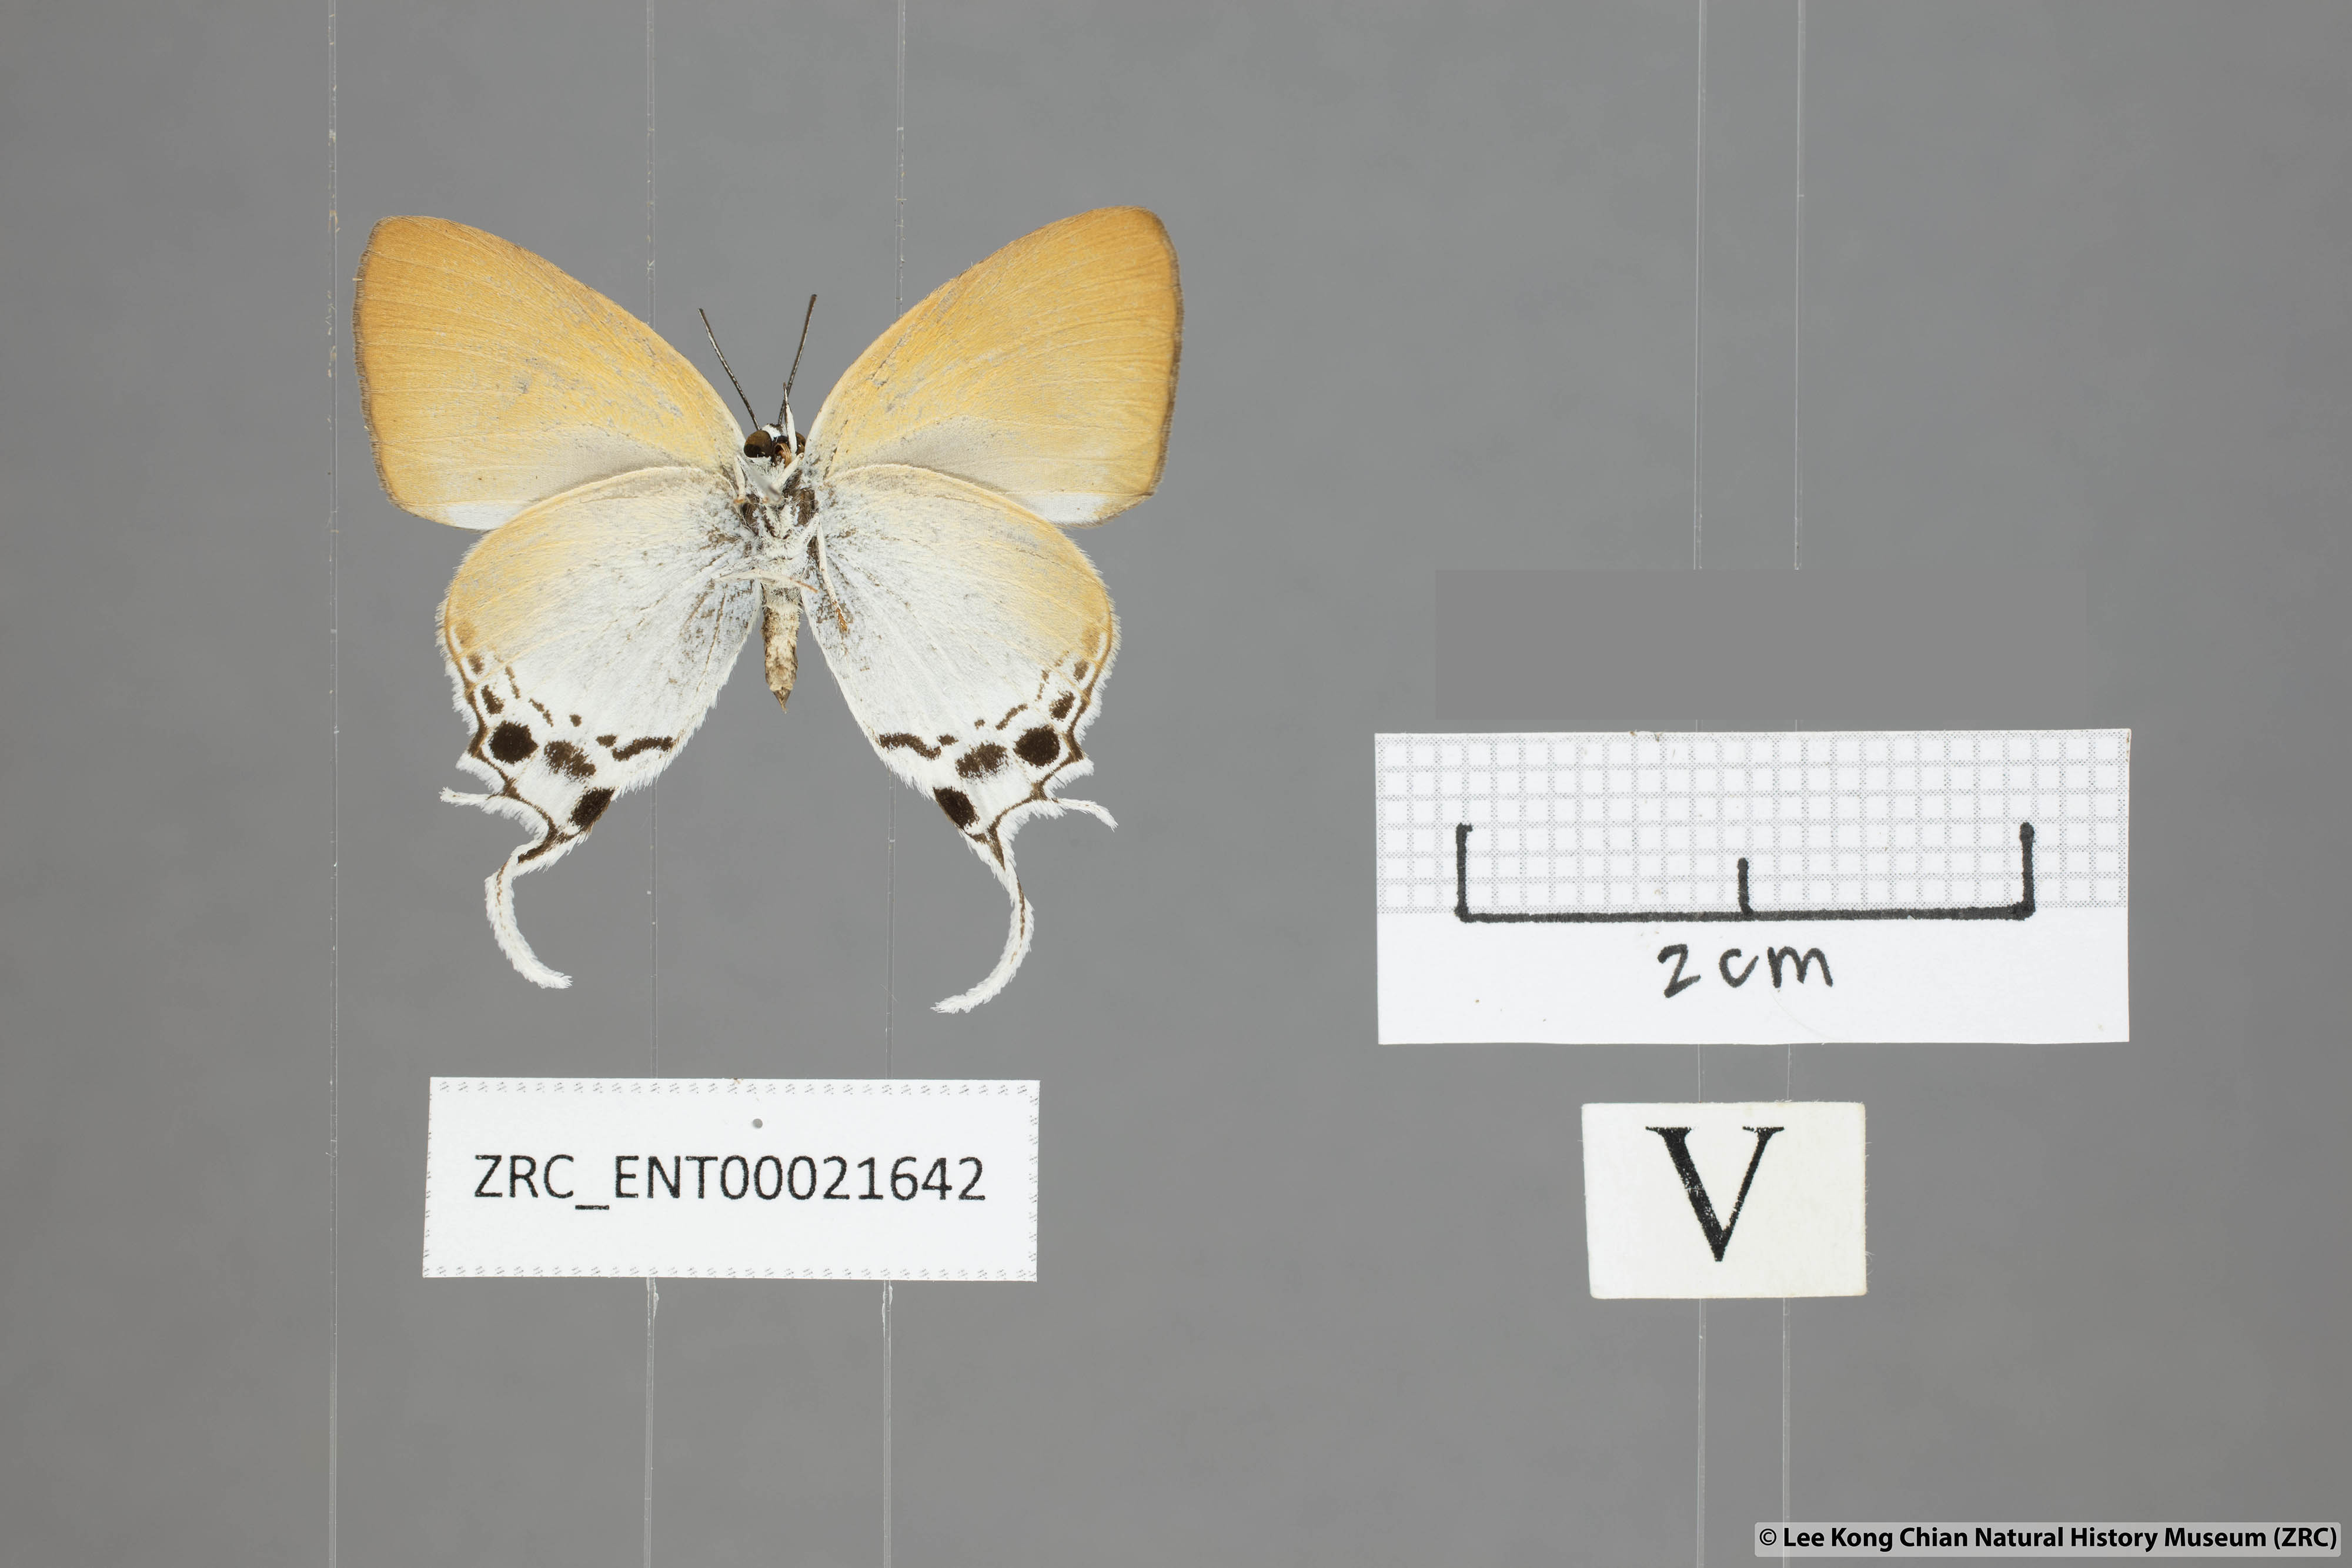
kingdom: Animalia
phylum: Arthropoda
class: Insecta
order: Lepidoptera
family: Lycaenidae
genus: Manto
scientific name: Manto hypoleuca
